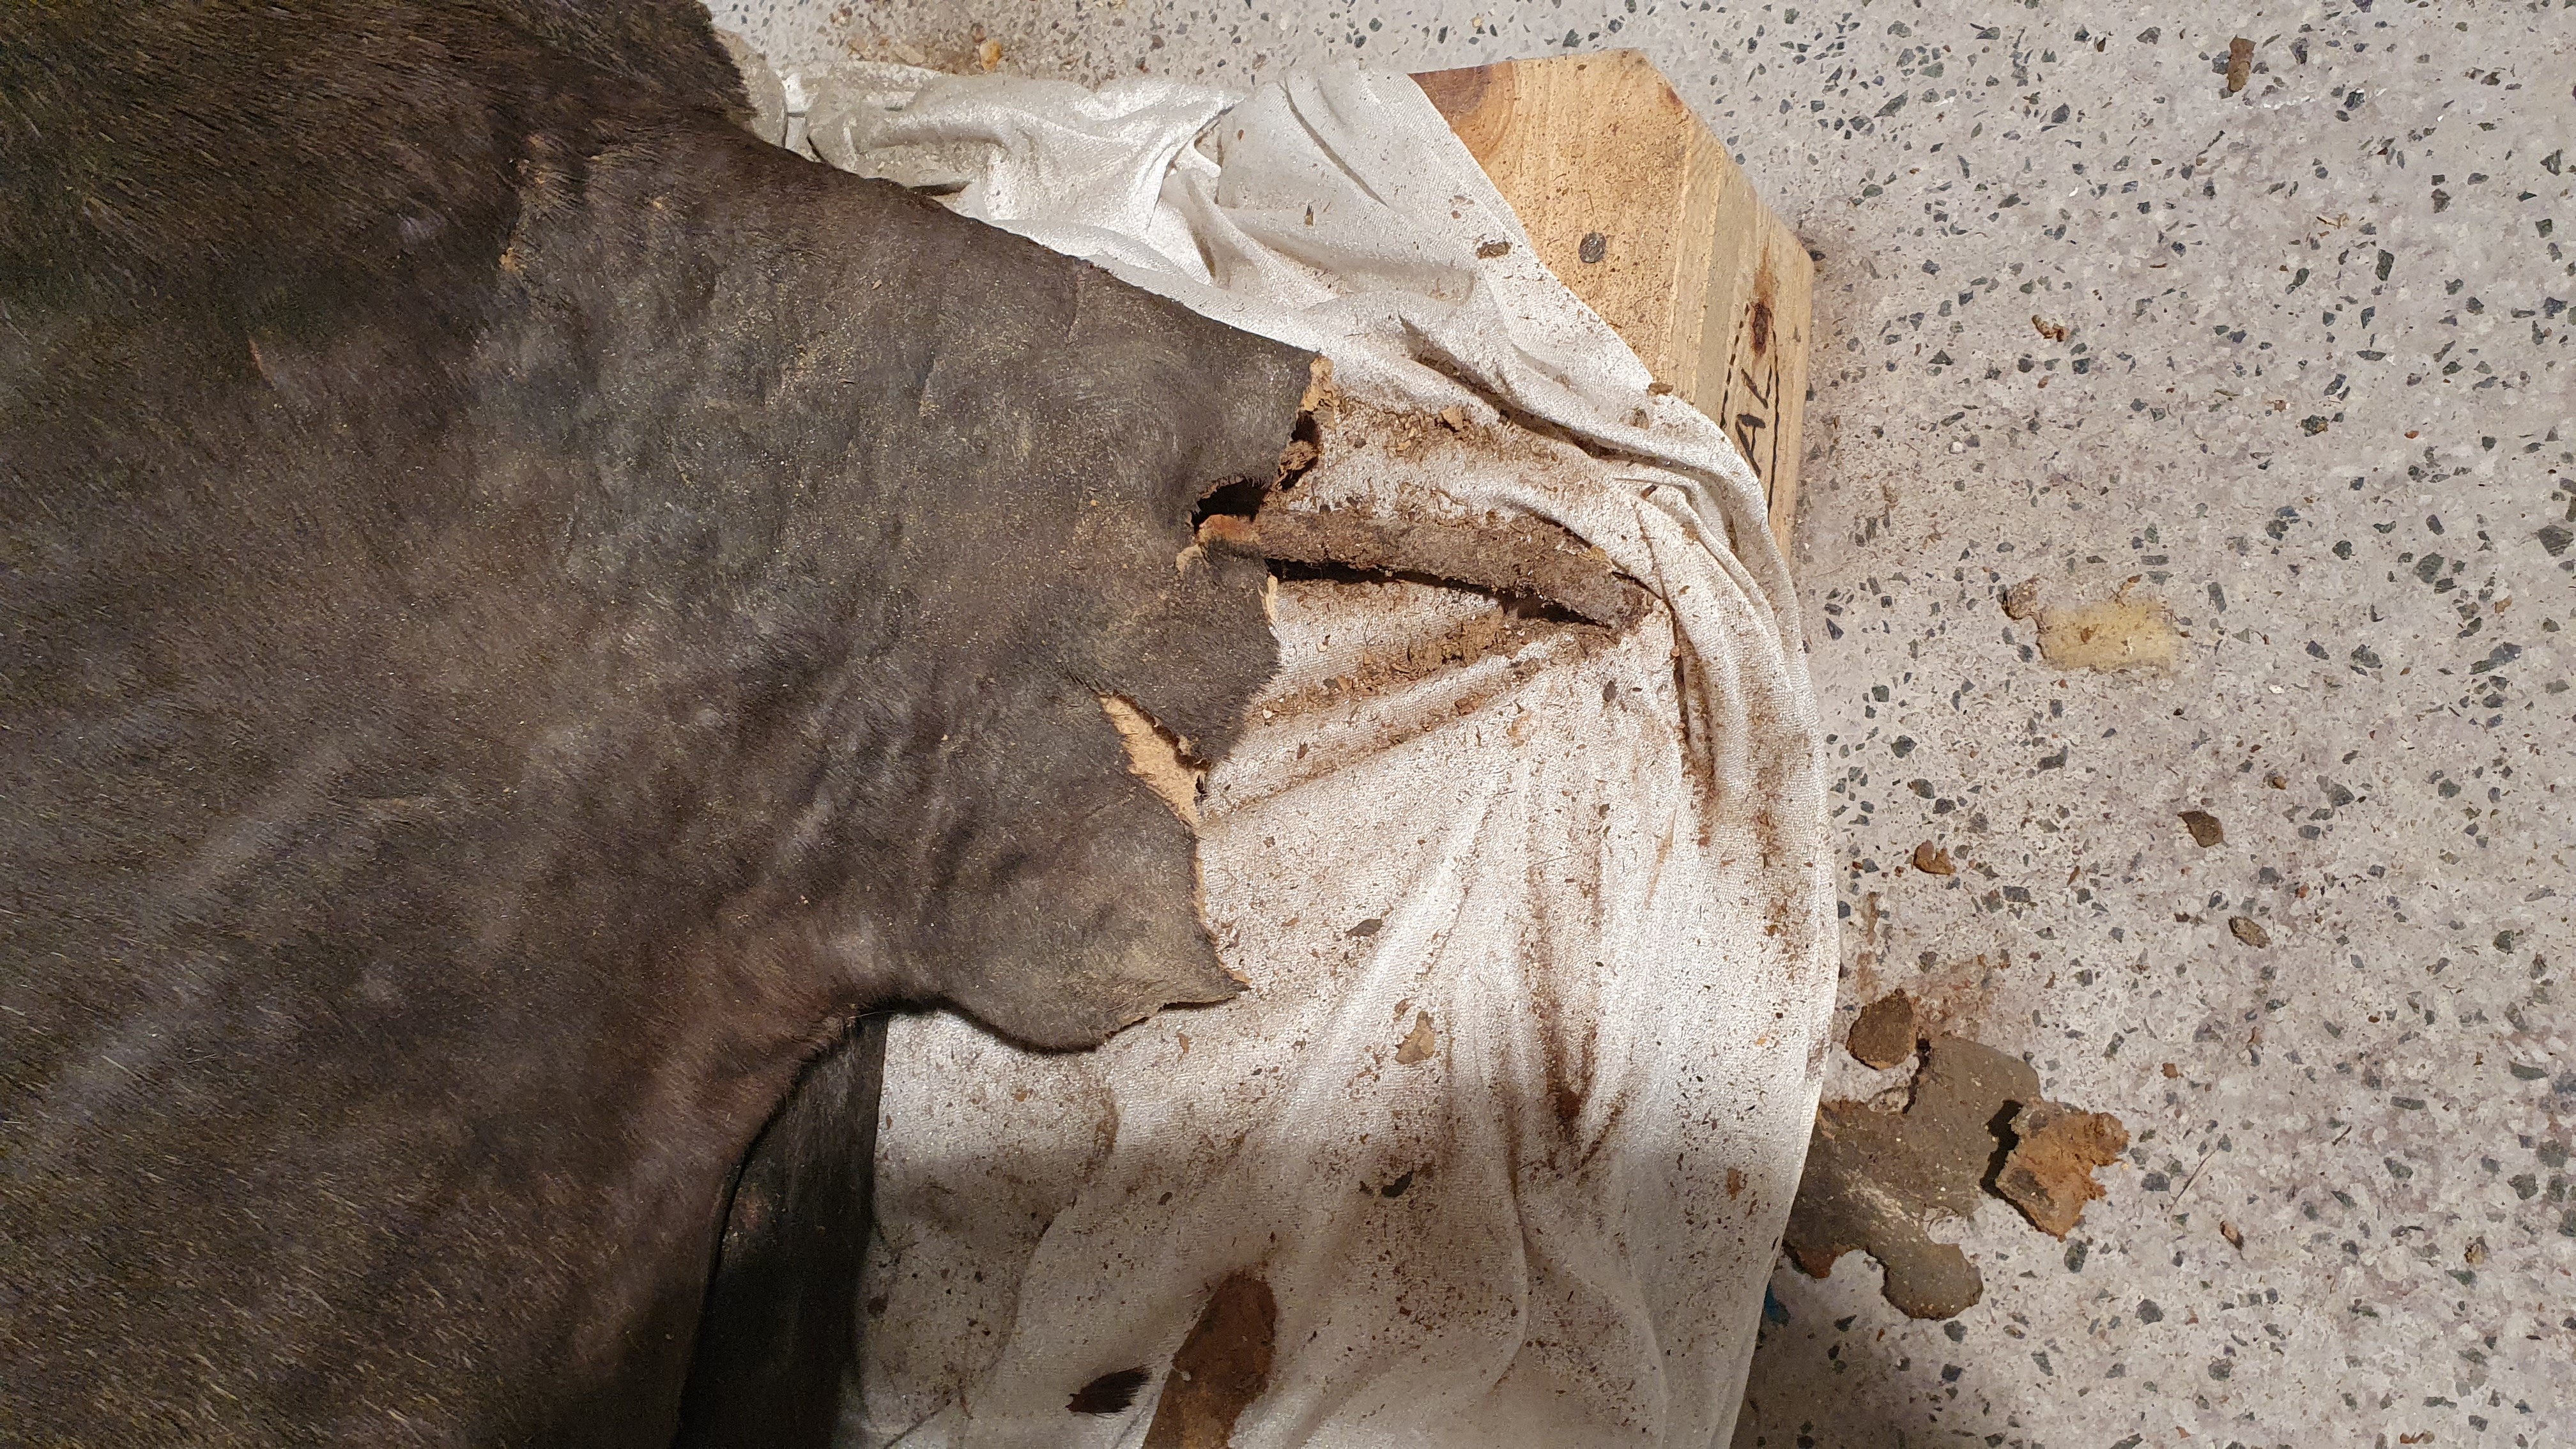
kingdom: Animalia
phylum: Chordata
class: Mammalia
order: Carnivora
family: Otariidae
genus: Arctocephalus
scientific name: Arctocephalus
